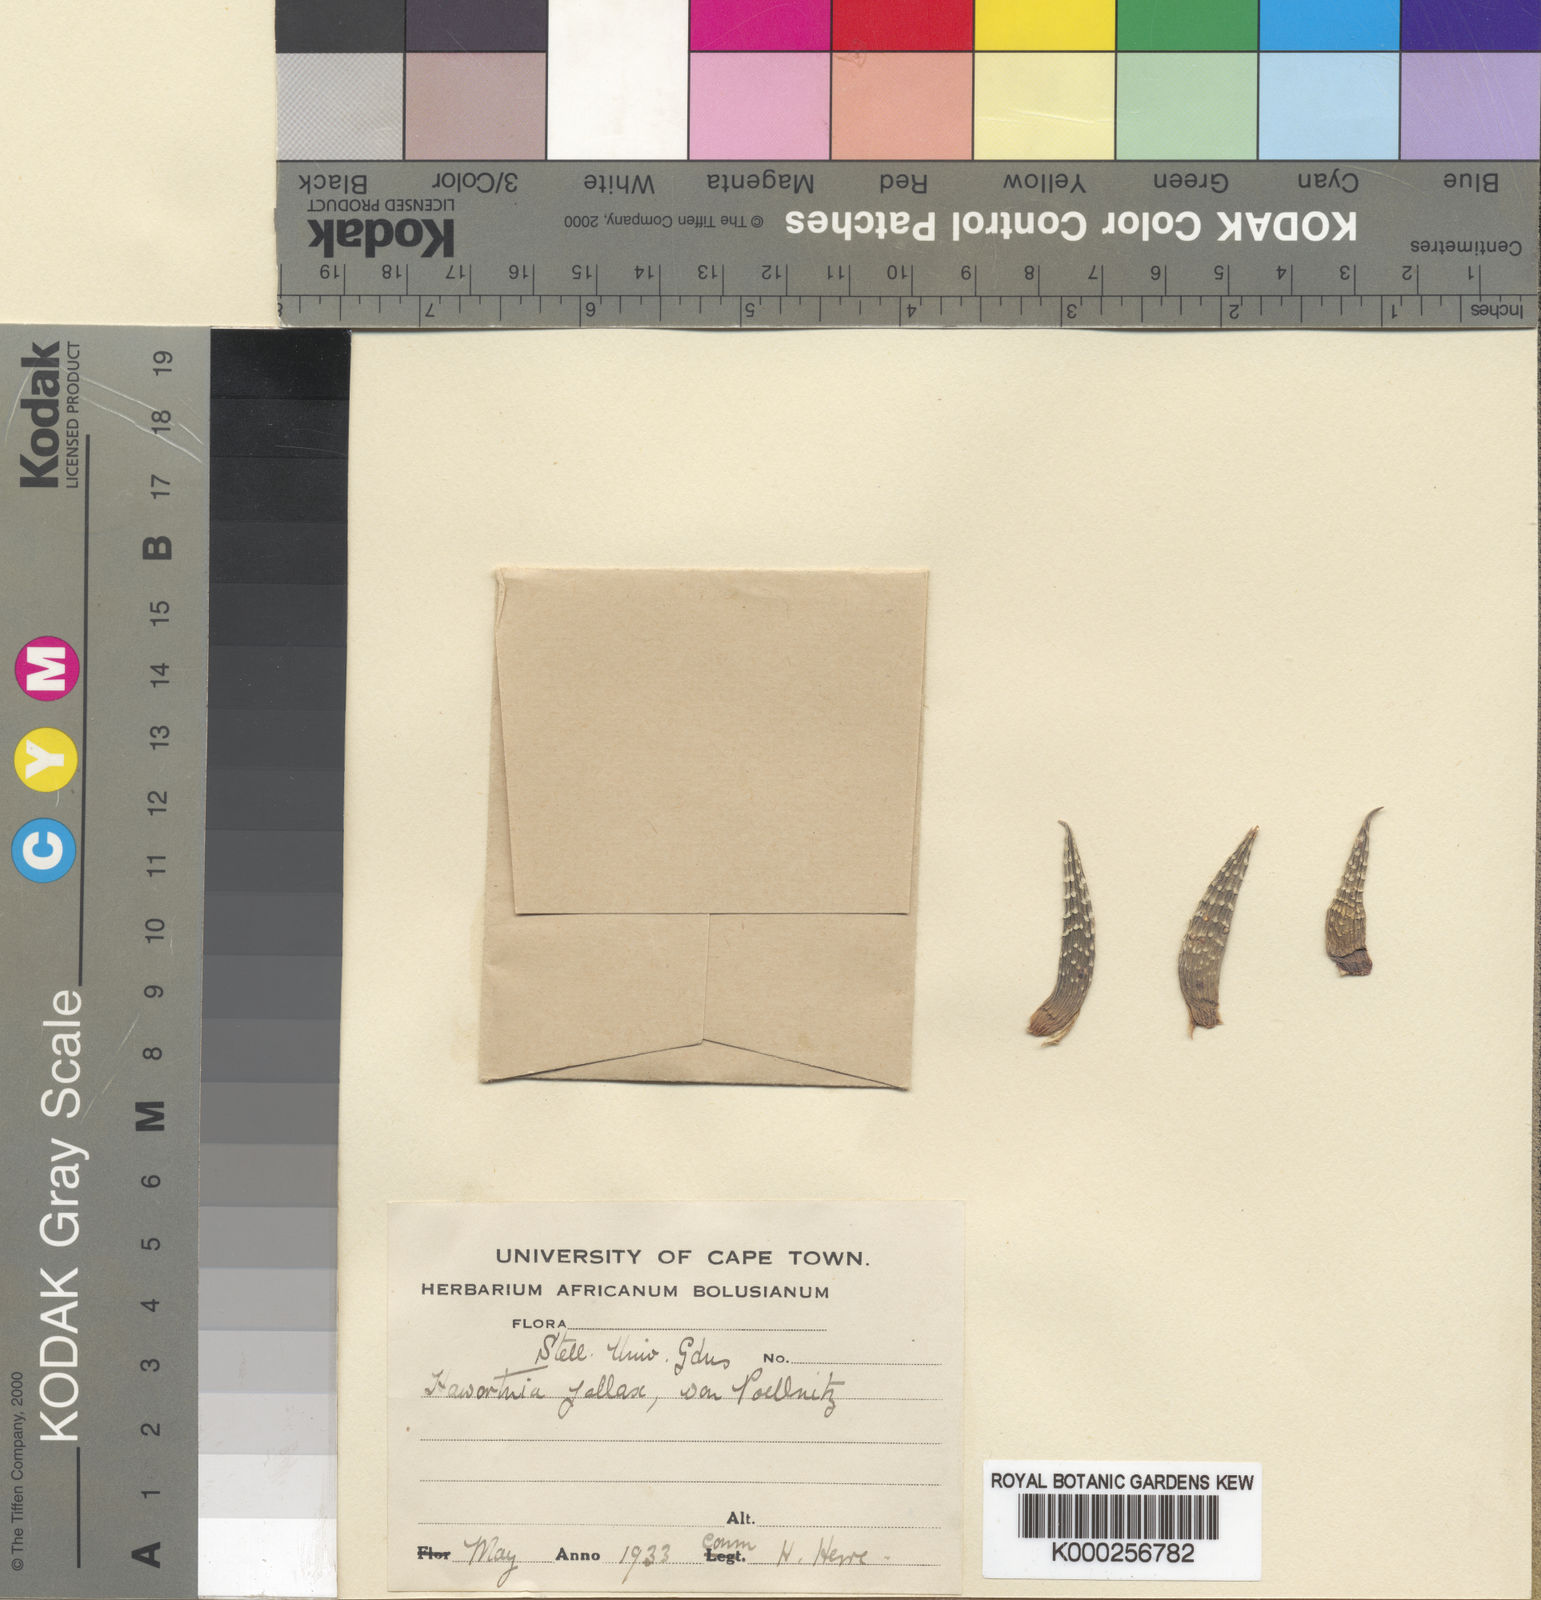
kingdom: Plantae
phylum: Tracheophyta
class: Liliopsida
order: Asparagales
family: Asphodelaceae
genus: Haworthiopsis
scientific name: Haworthiopsis reinwardtii
